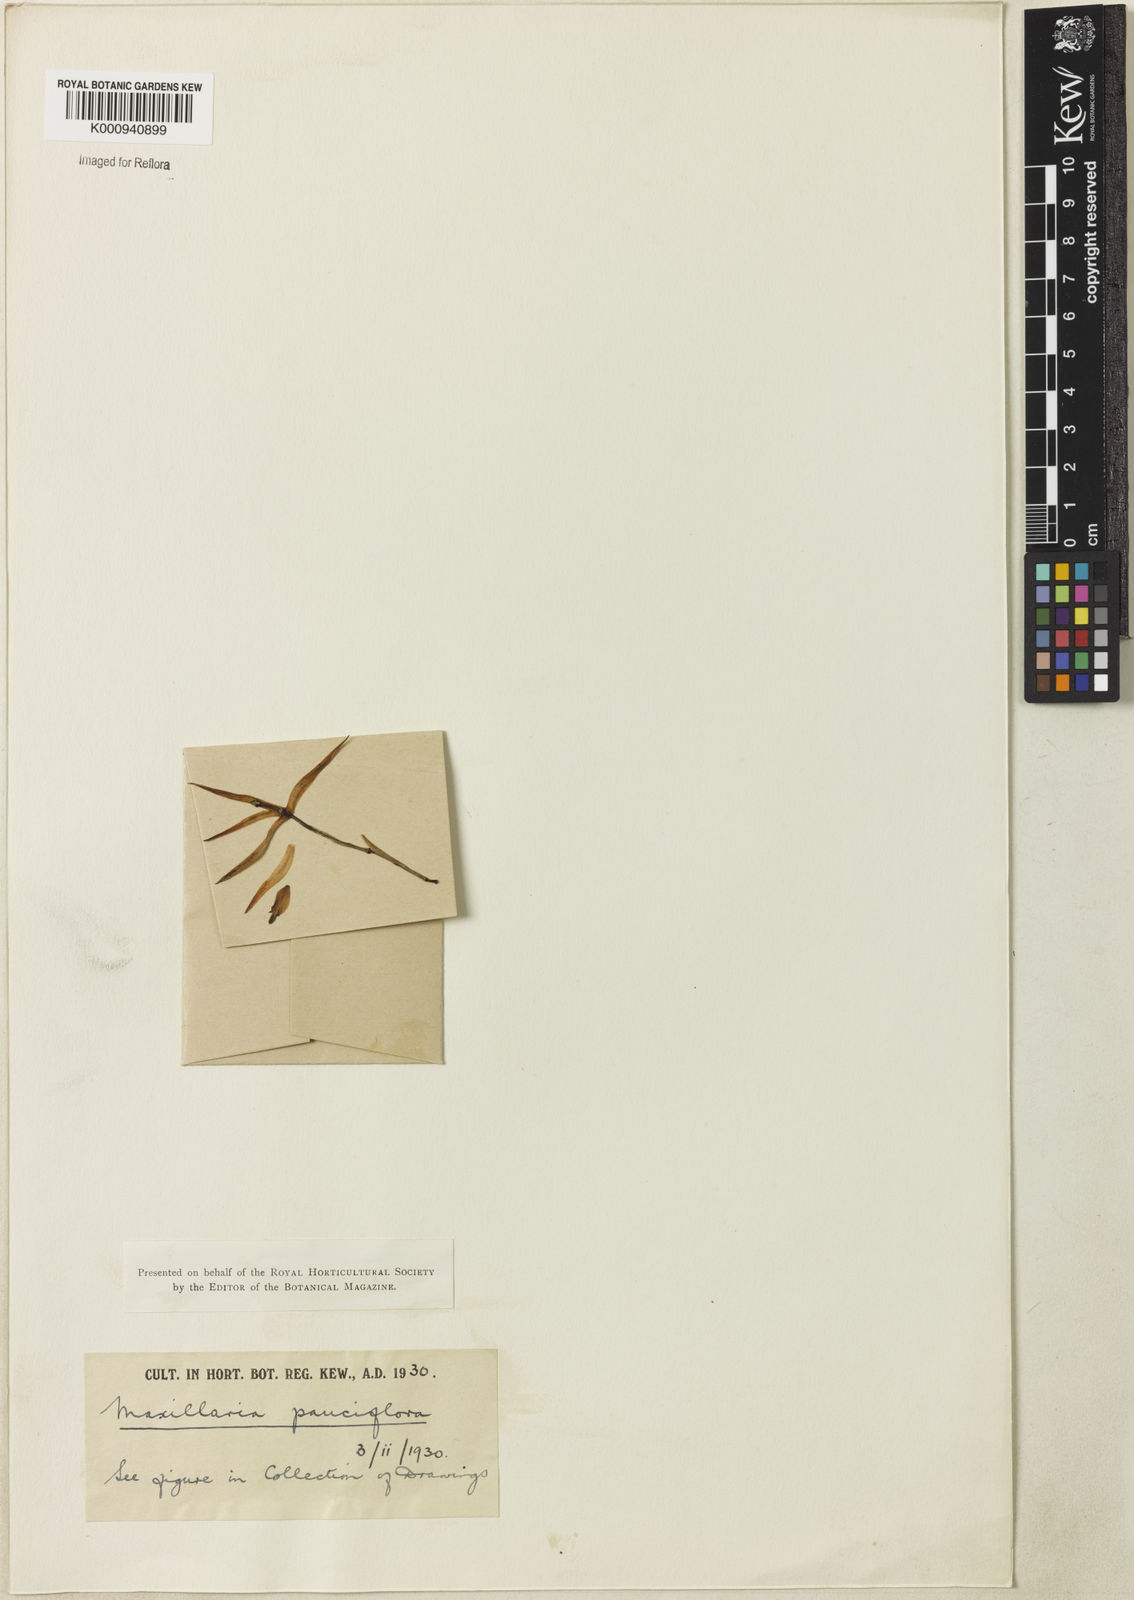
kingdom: Plantae
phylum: Tracheophyta
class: Liliopsida
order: Asparagales
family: Orchidaceae
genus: Maxillaria
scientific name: Maxillaria pauciflora
